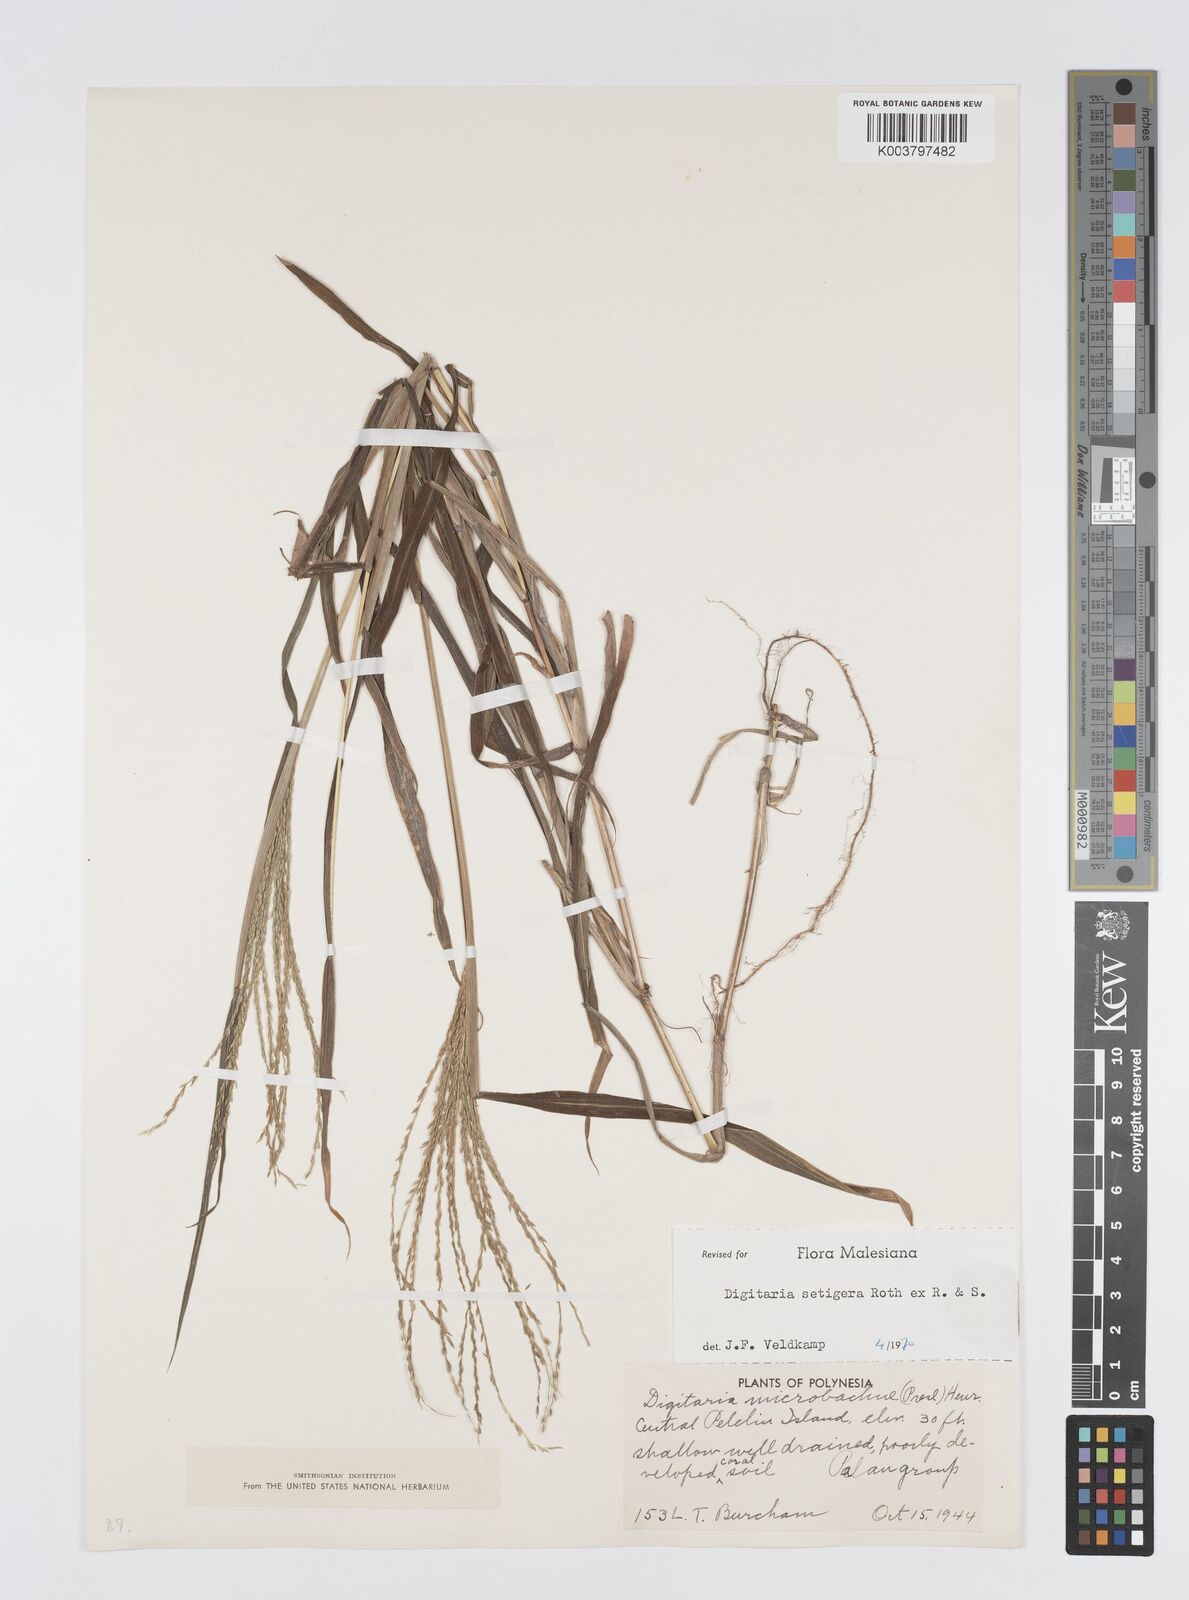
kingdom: Plantae
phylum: Tracheophyta
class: Liliopsida
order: Poales
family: Poaceae
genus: Digitaria
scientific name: Digitaria setigera
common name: East indian crabgrass
